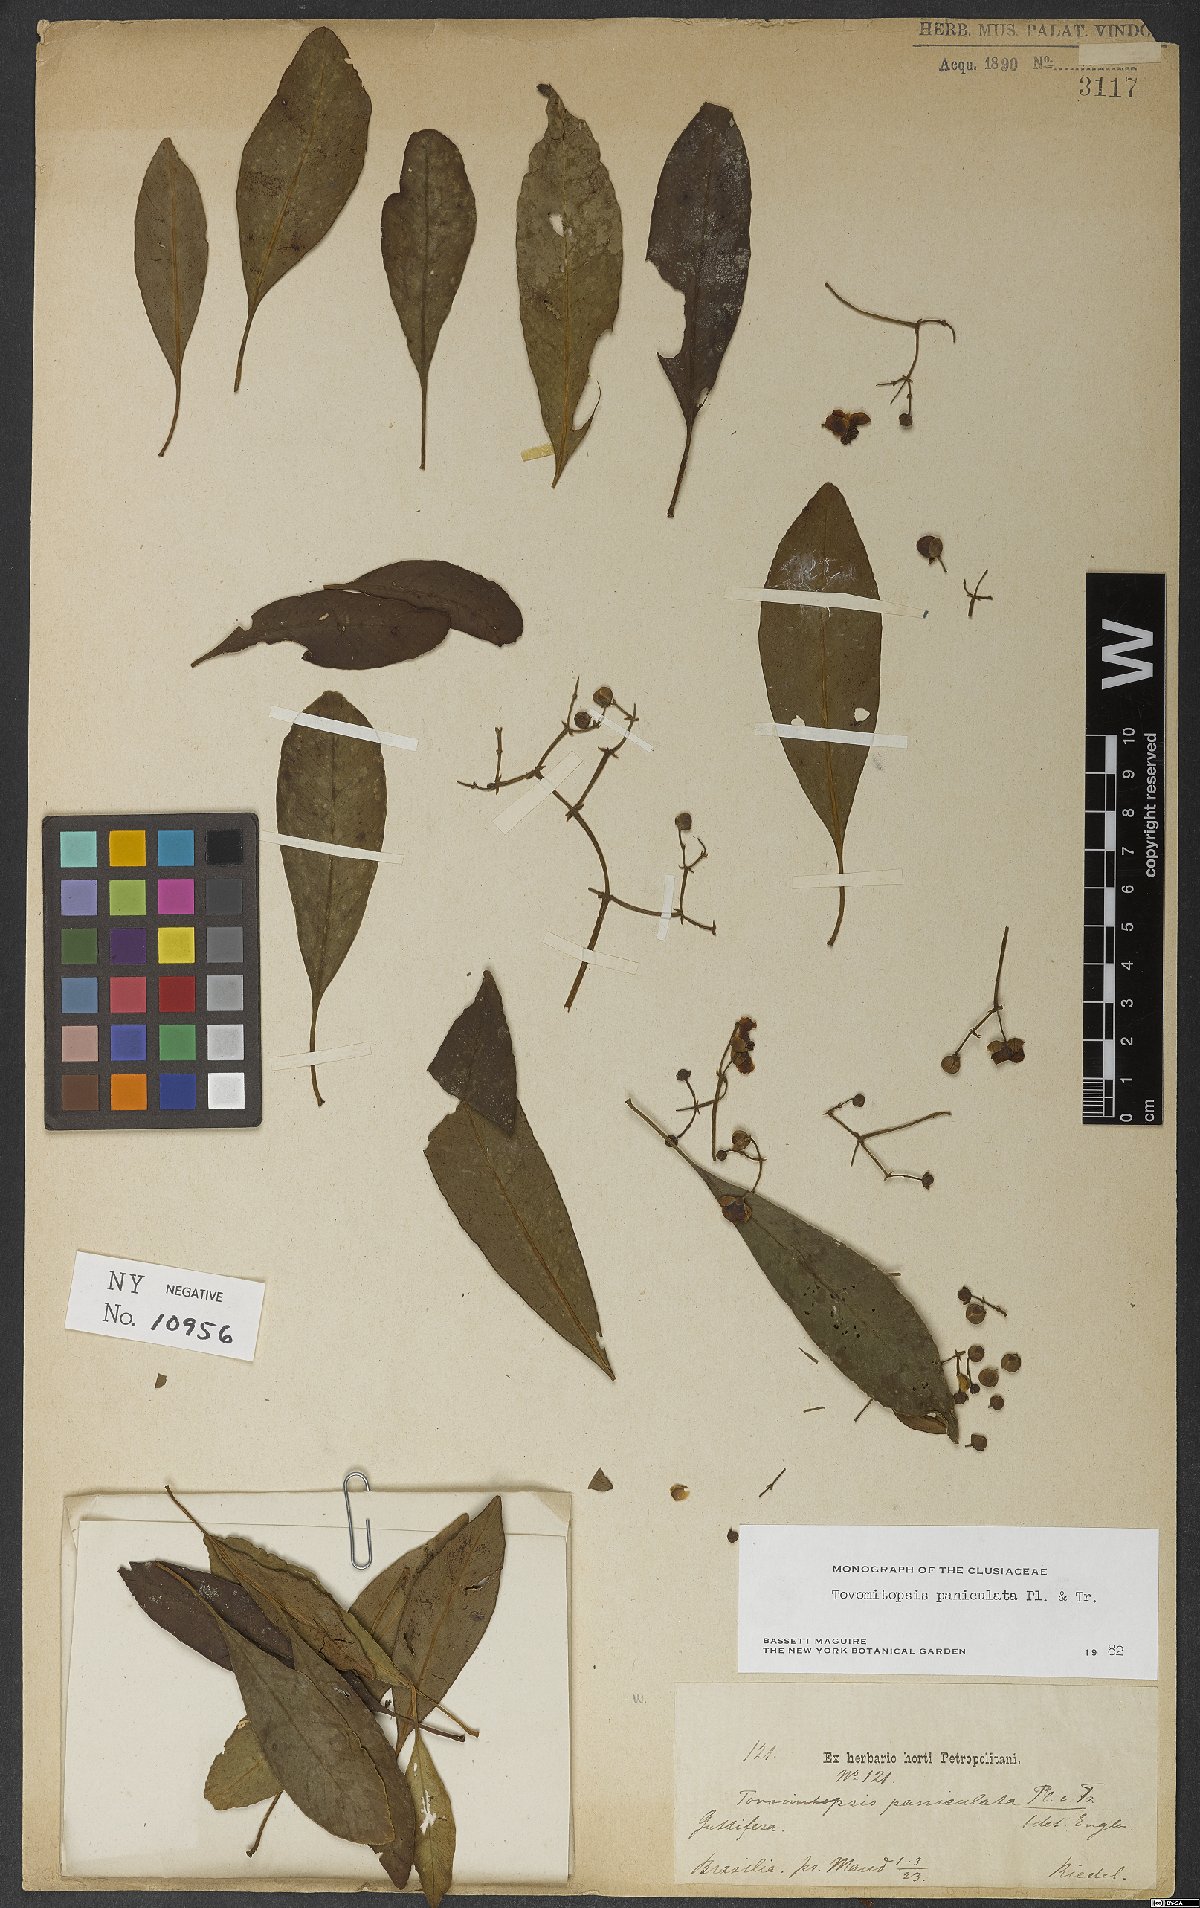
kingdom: Plantae
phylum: Tracheophyta
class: Magnoliopsida
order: Malpighiales
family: Clusiaceae
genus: Chrysochlamys
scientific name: Chrysochlamys paniculata
